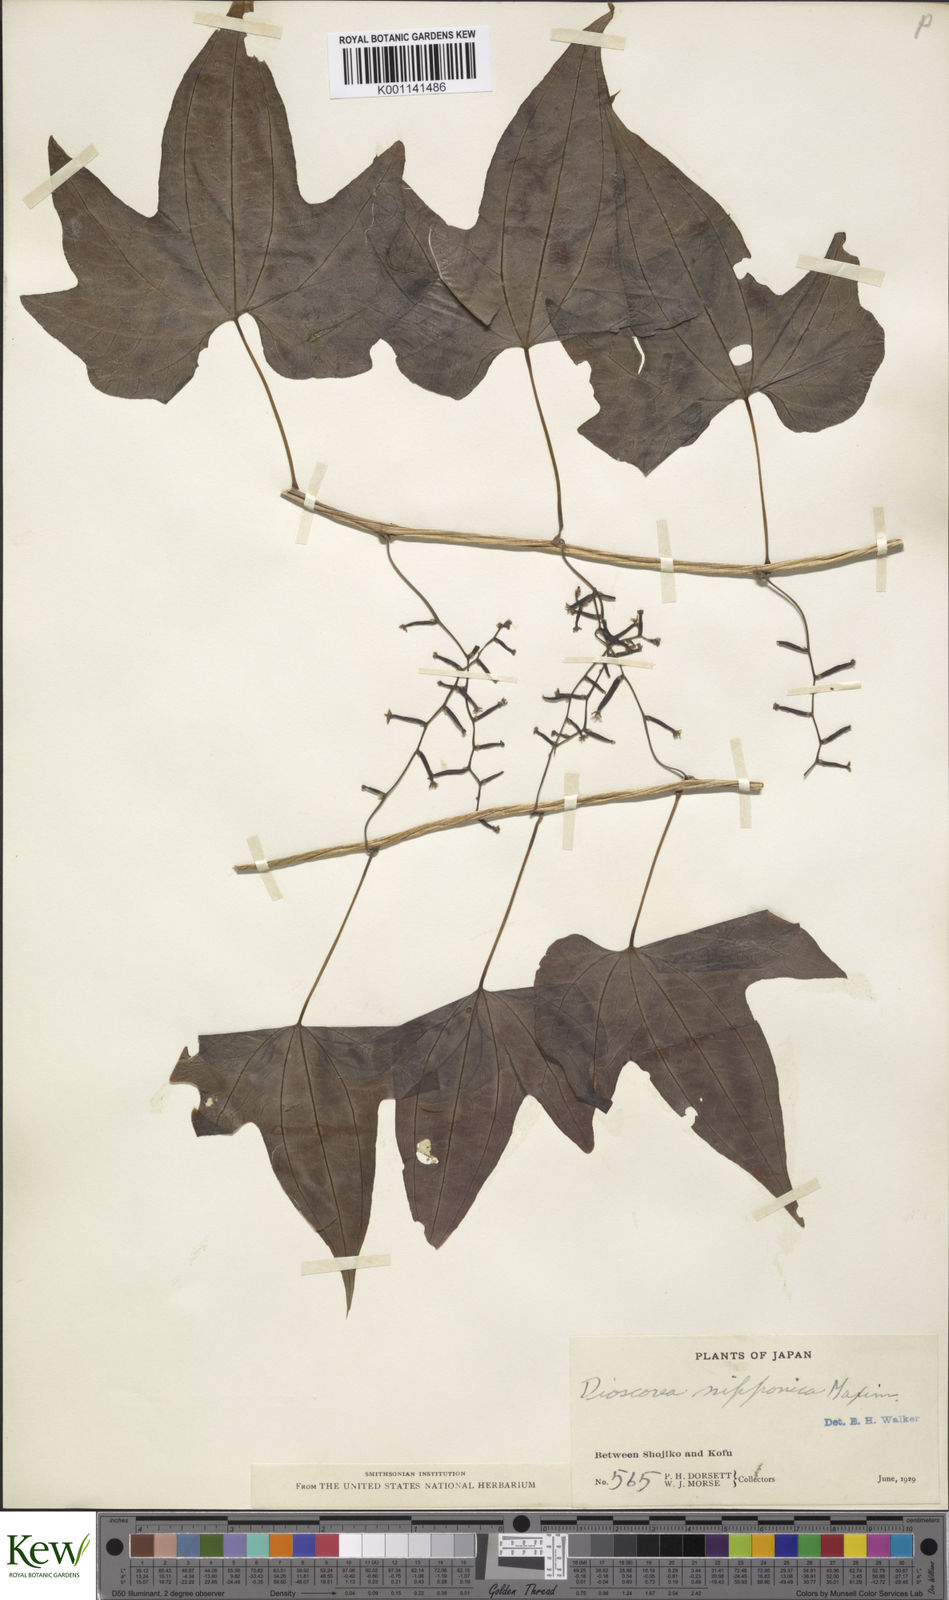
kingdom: Plantae
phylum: Tracheophyta
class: Liliopsida
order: Dioscoreales
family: Dioscoreaceae
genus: Dioscorea
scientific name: Dioscorea nipponica
